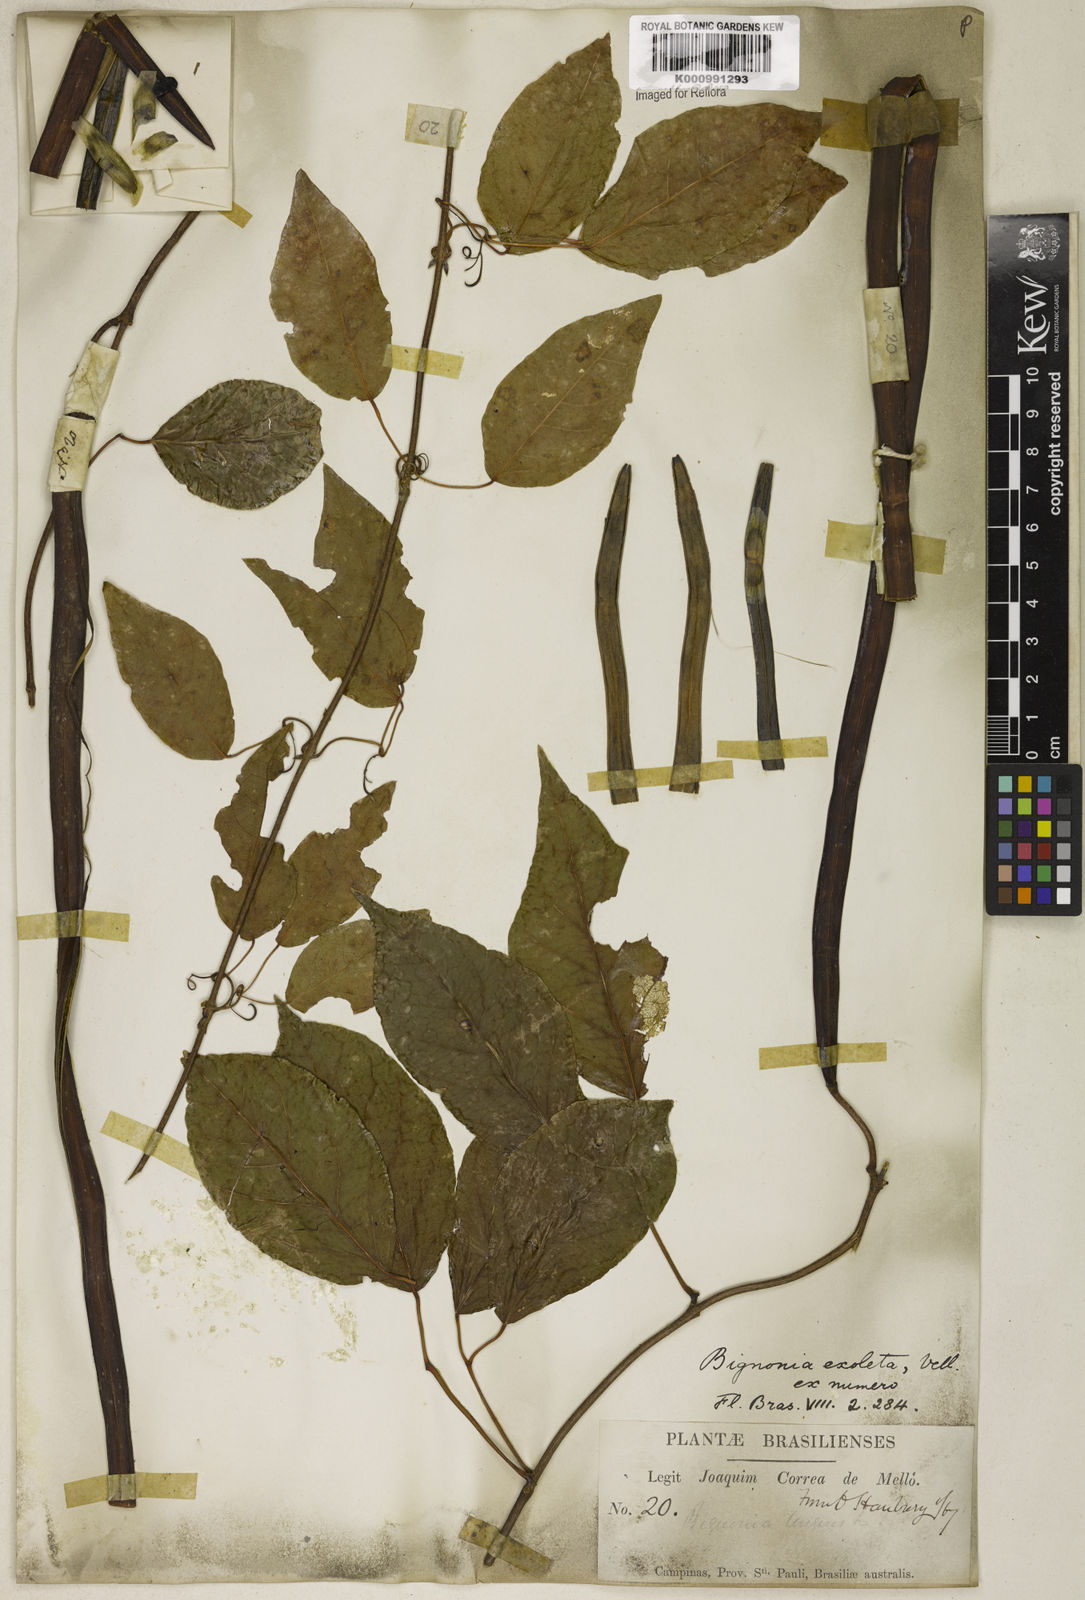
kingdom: Plantae
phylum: Tracheophyta
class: Magnoliopsida
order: Lamiales
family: Bignoniaceae
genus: Dolichandra
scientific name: Dolichandra unguis-cati
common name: Catclaw vine
